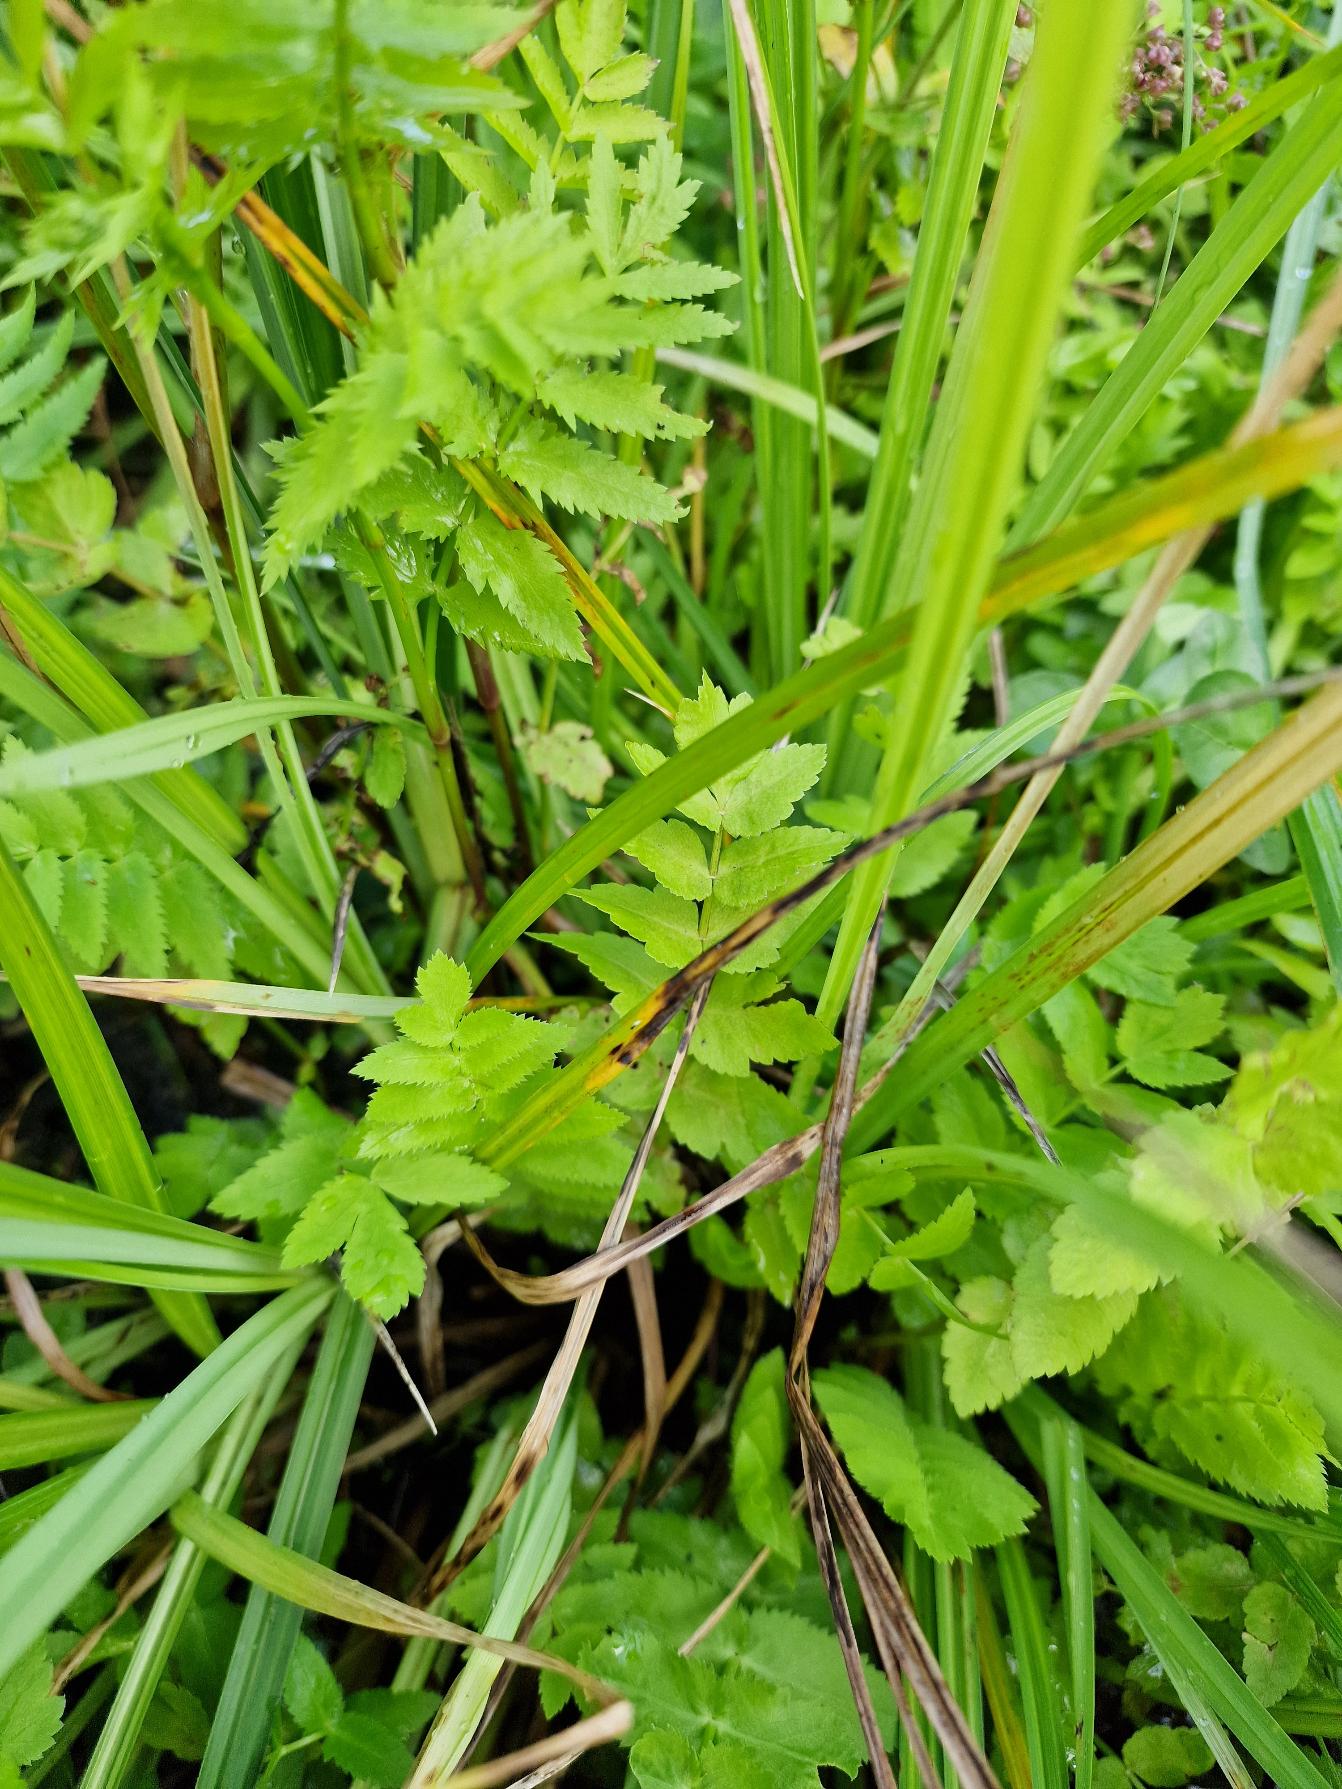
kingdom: Plantae
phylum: Tracheophyta
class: Magnoliopsida
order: Apiales
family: Apiaceae
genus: Berula
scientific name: Berula erecta
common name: Sideskærm
